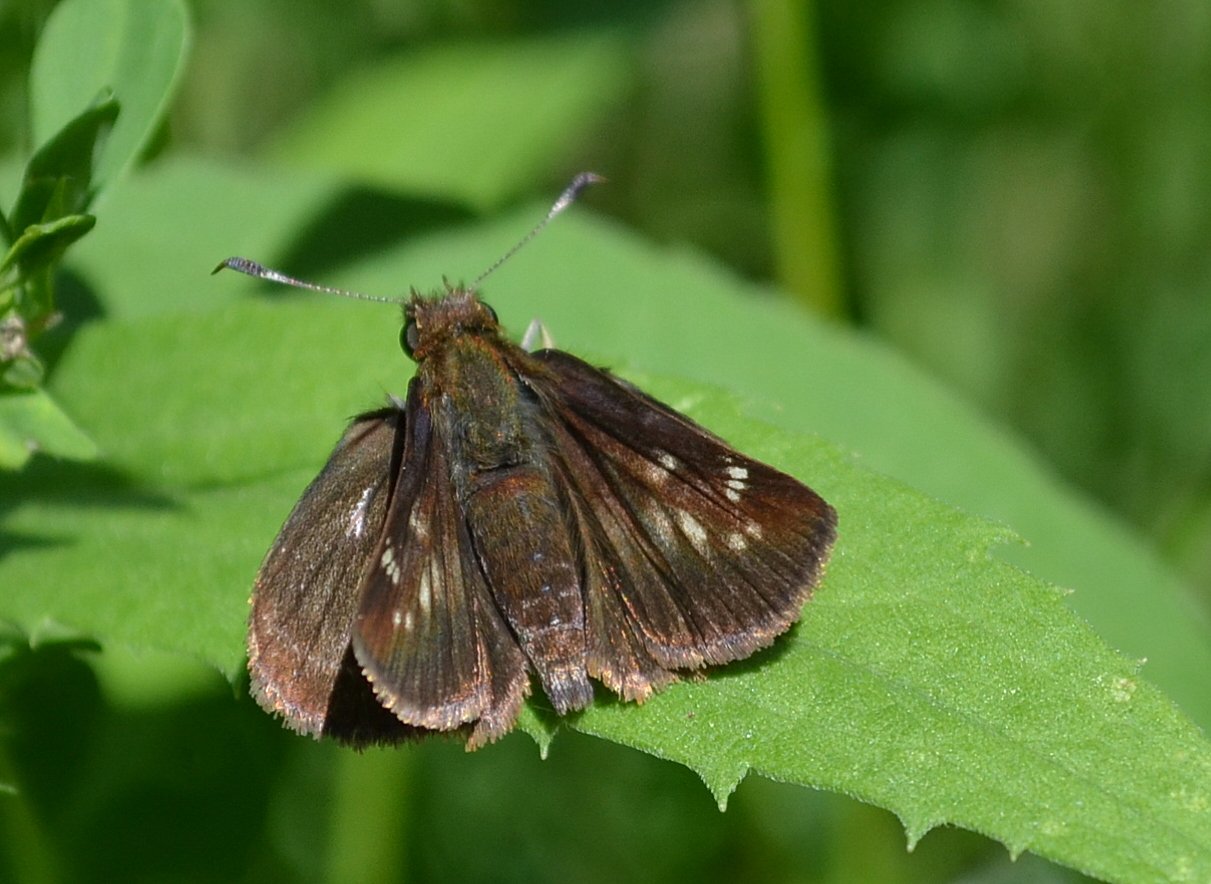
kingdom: Animalia
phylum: Arthropoda
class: Insecta
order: Lepidoptera
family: Hesperiidae
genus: Lon
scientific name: Lon hobomok
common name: Hobomok Skipper
